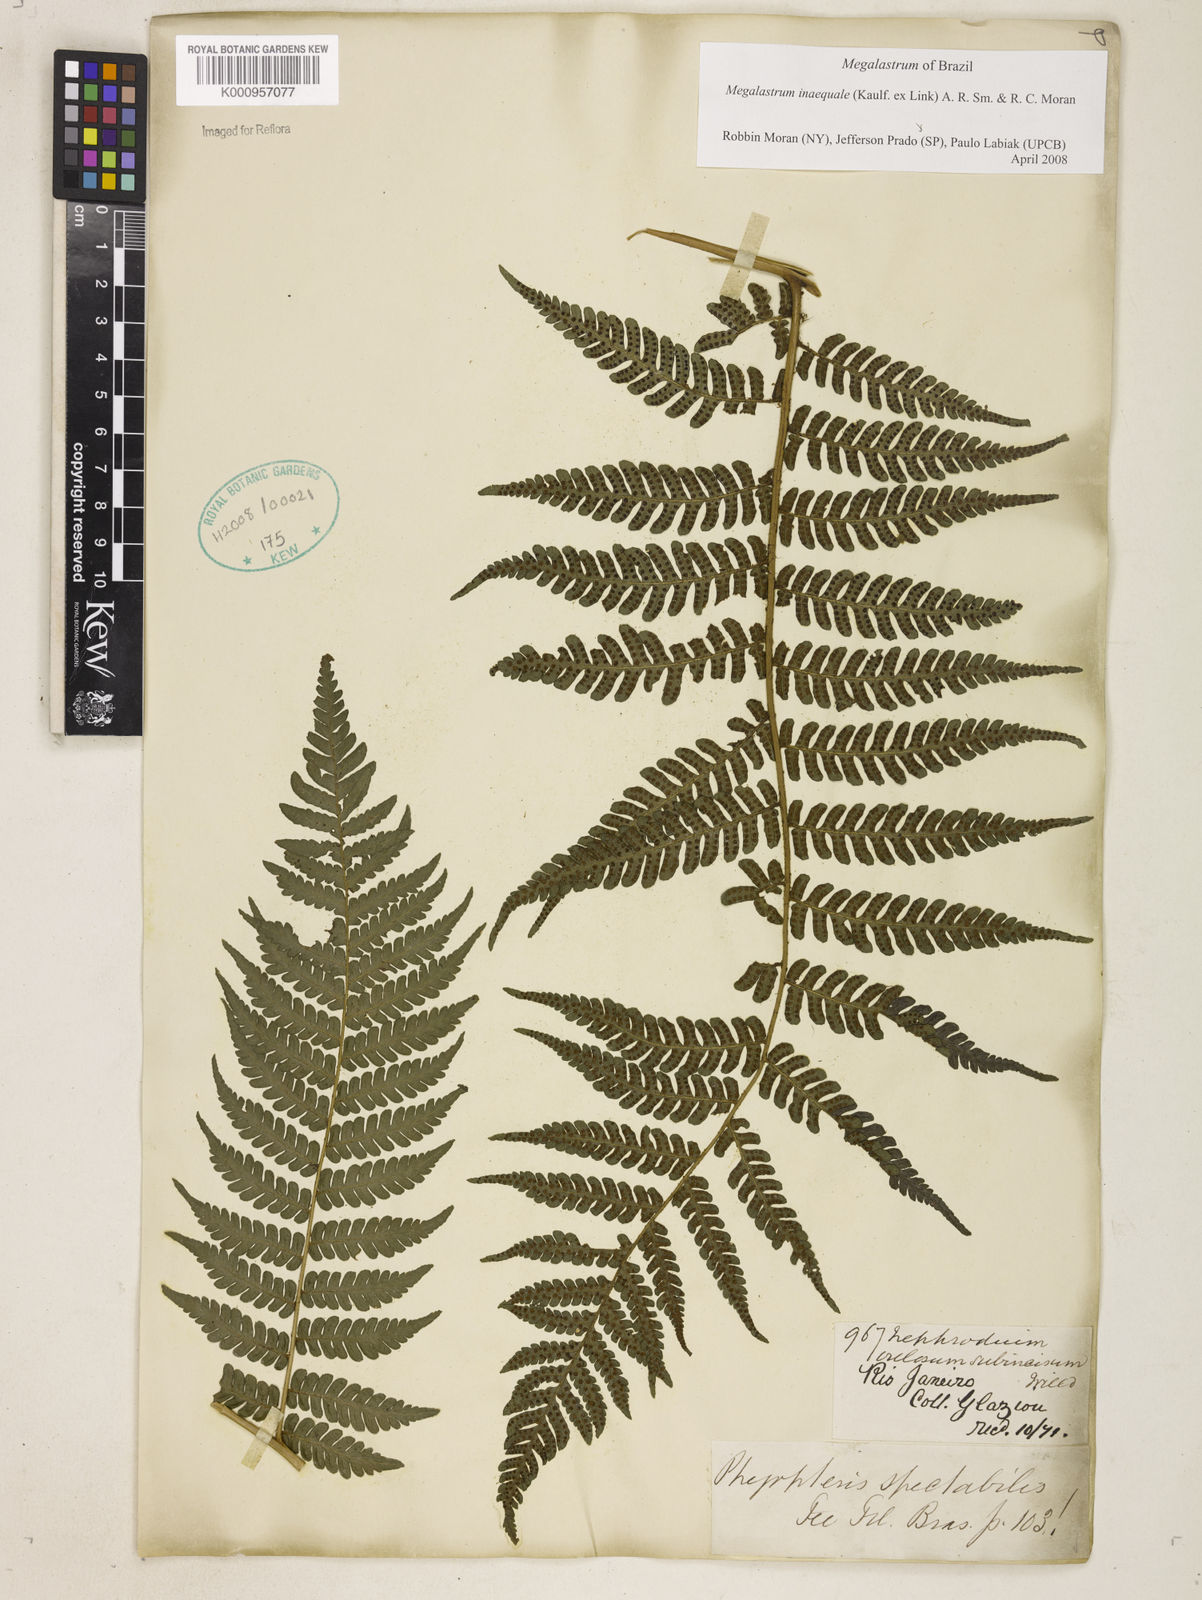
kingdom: Plantae
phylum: Tracheophyta
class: Polypodiopsida
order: Polypodiales
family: Dryopteridaceae
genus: Megalastrum
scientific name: Megalastrum inaequale
